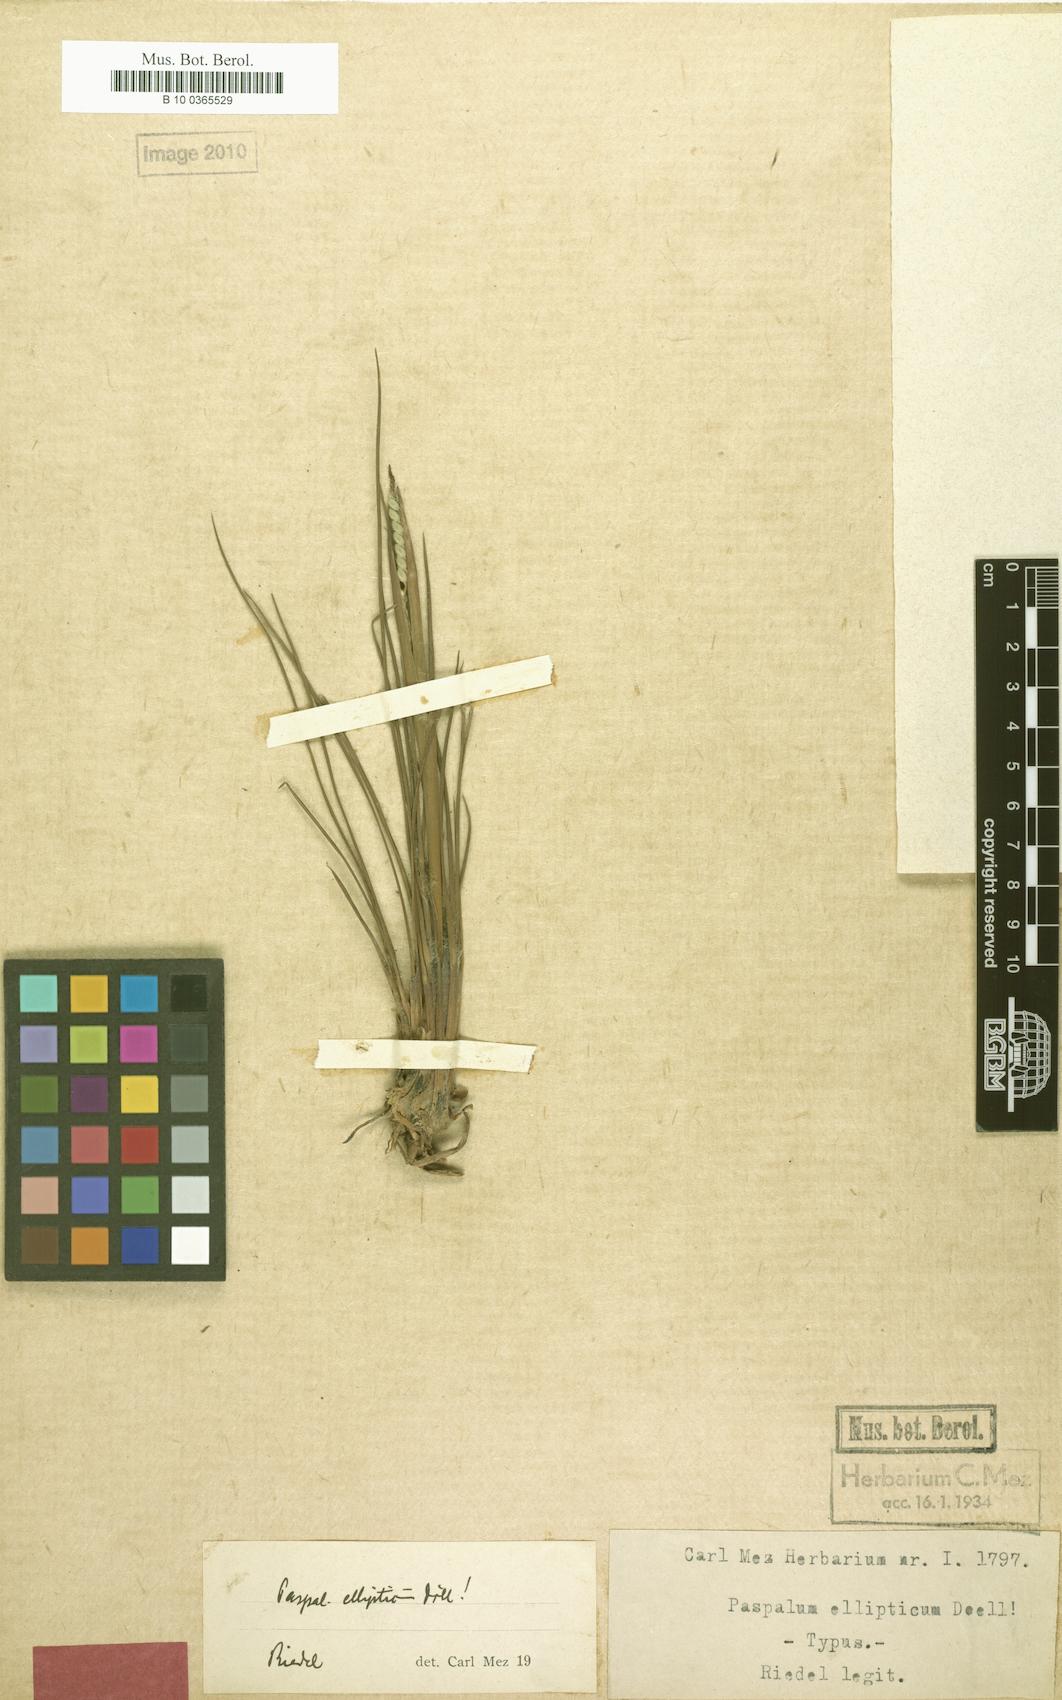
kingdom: Plantae
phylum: Tracheophyta
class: Liliopsida
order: Poales
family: Poaceae
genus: Paspalum
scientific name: Paspalum ellipticum
